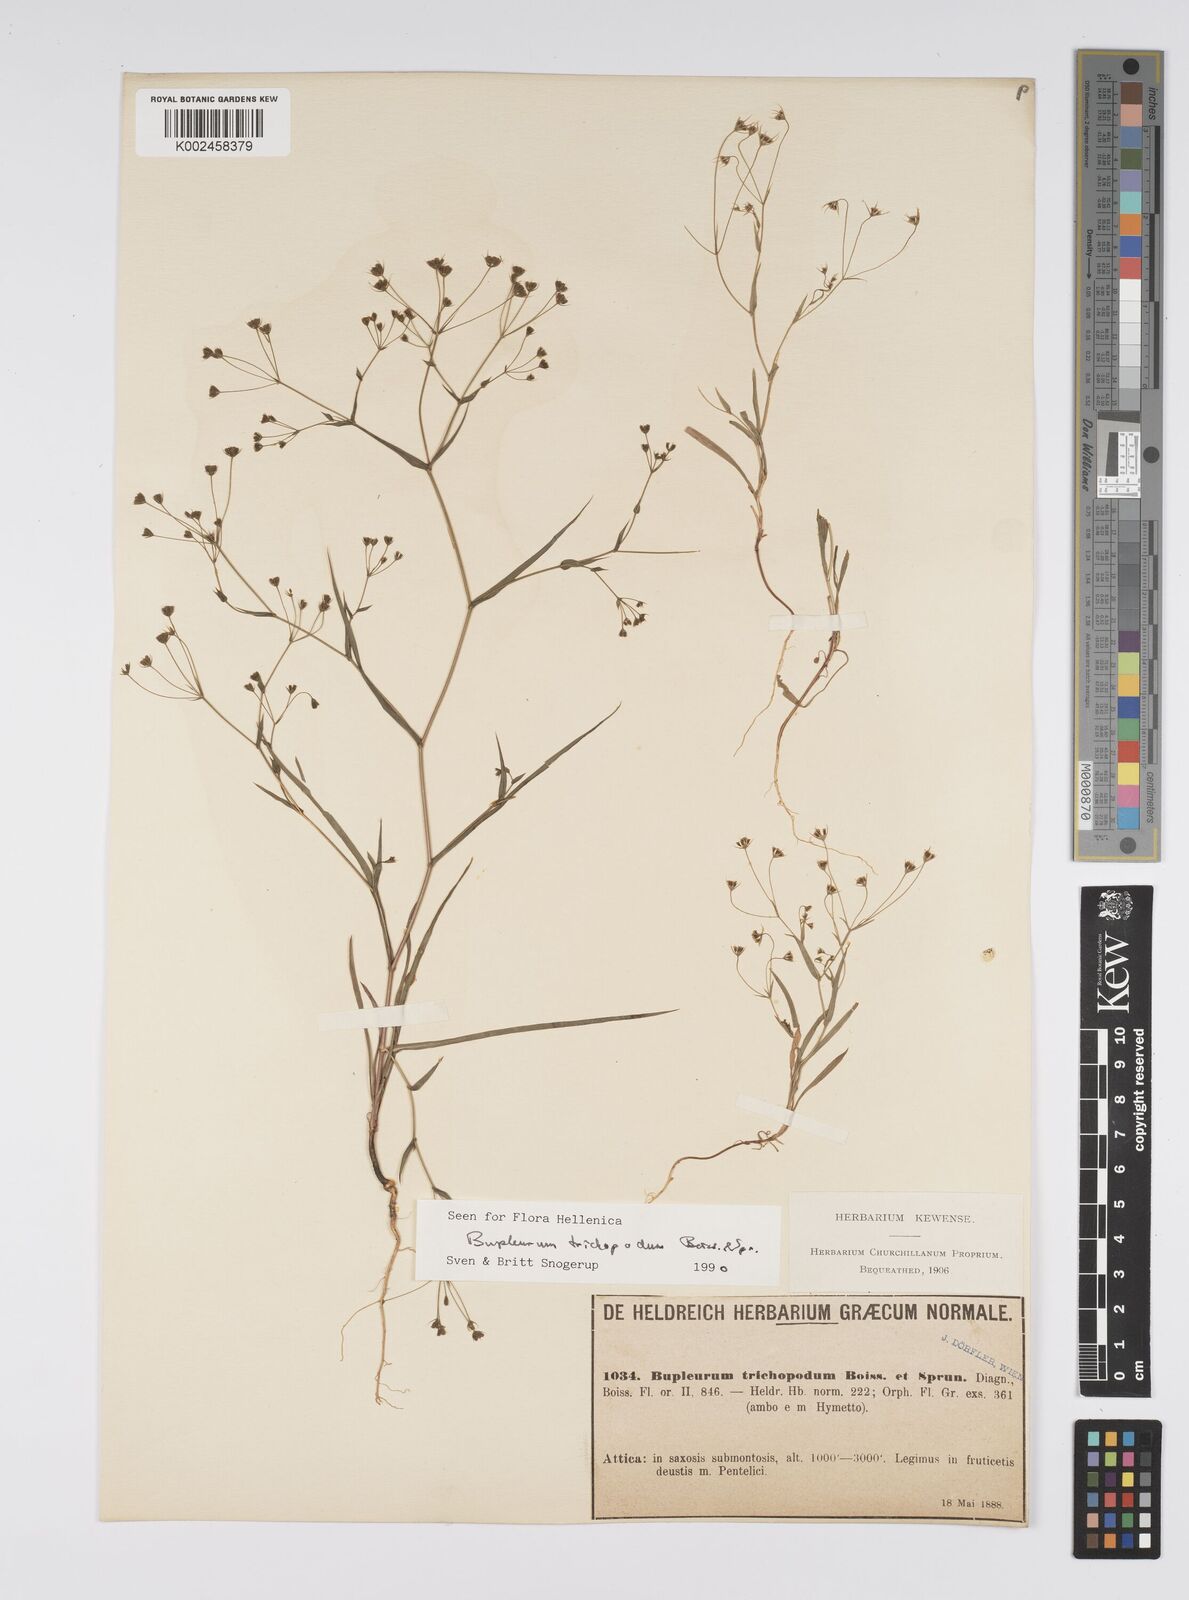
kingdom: Plantae
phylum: Tracheophyta
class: Magnoliopsida
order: Apiales
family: Apiaceae
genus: Bupleurum
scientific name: Bupleurum trichopodum
